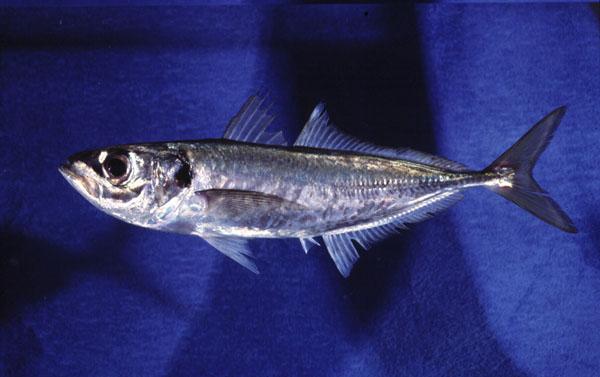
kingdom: Animalia
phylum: Chordata
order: Perciformes
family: Carangidae
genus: Trachurus
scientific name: Trachurus trachurus
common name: Horse mackerel
